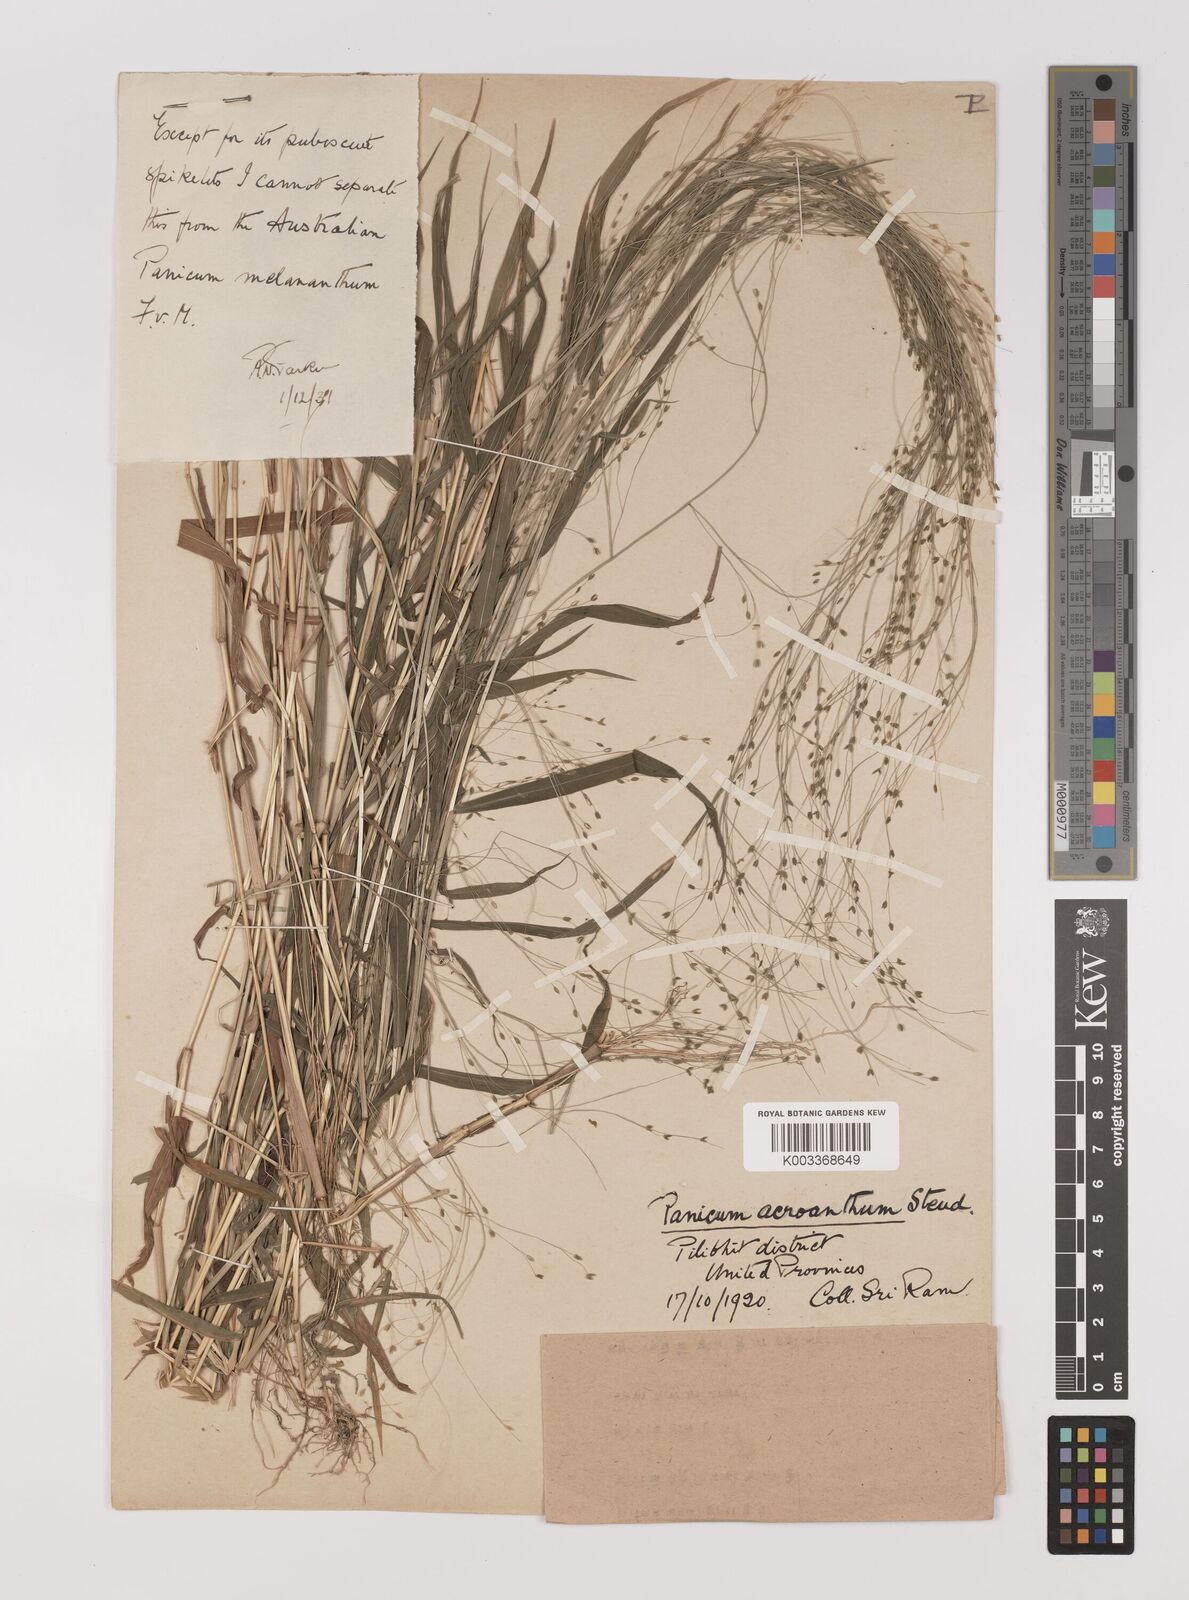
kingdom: Plantae
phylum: Tracheophyta
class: Liliopsida
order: Poales
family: Poaceae
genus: Panicum
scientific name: Panicum bisulcatum
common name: Japanese panicgrass
